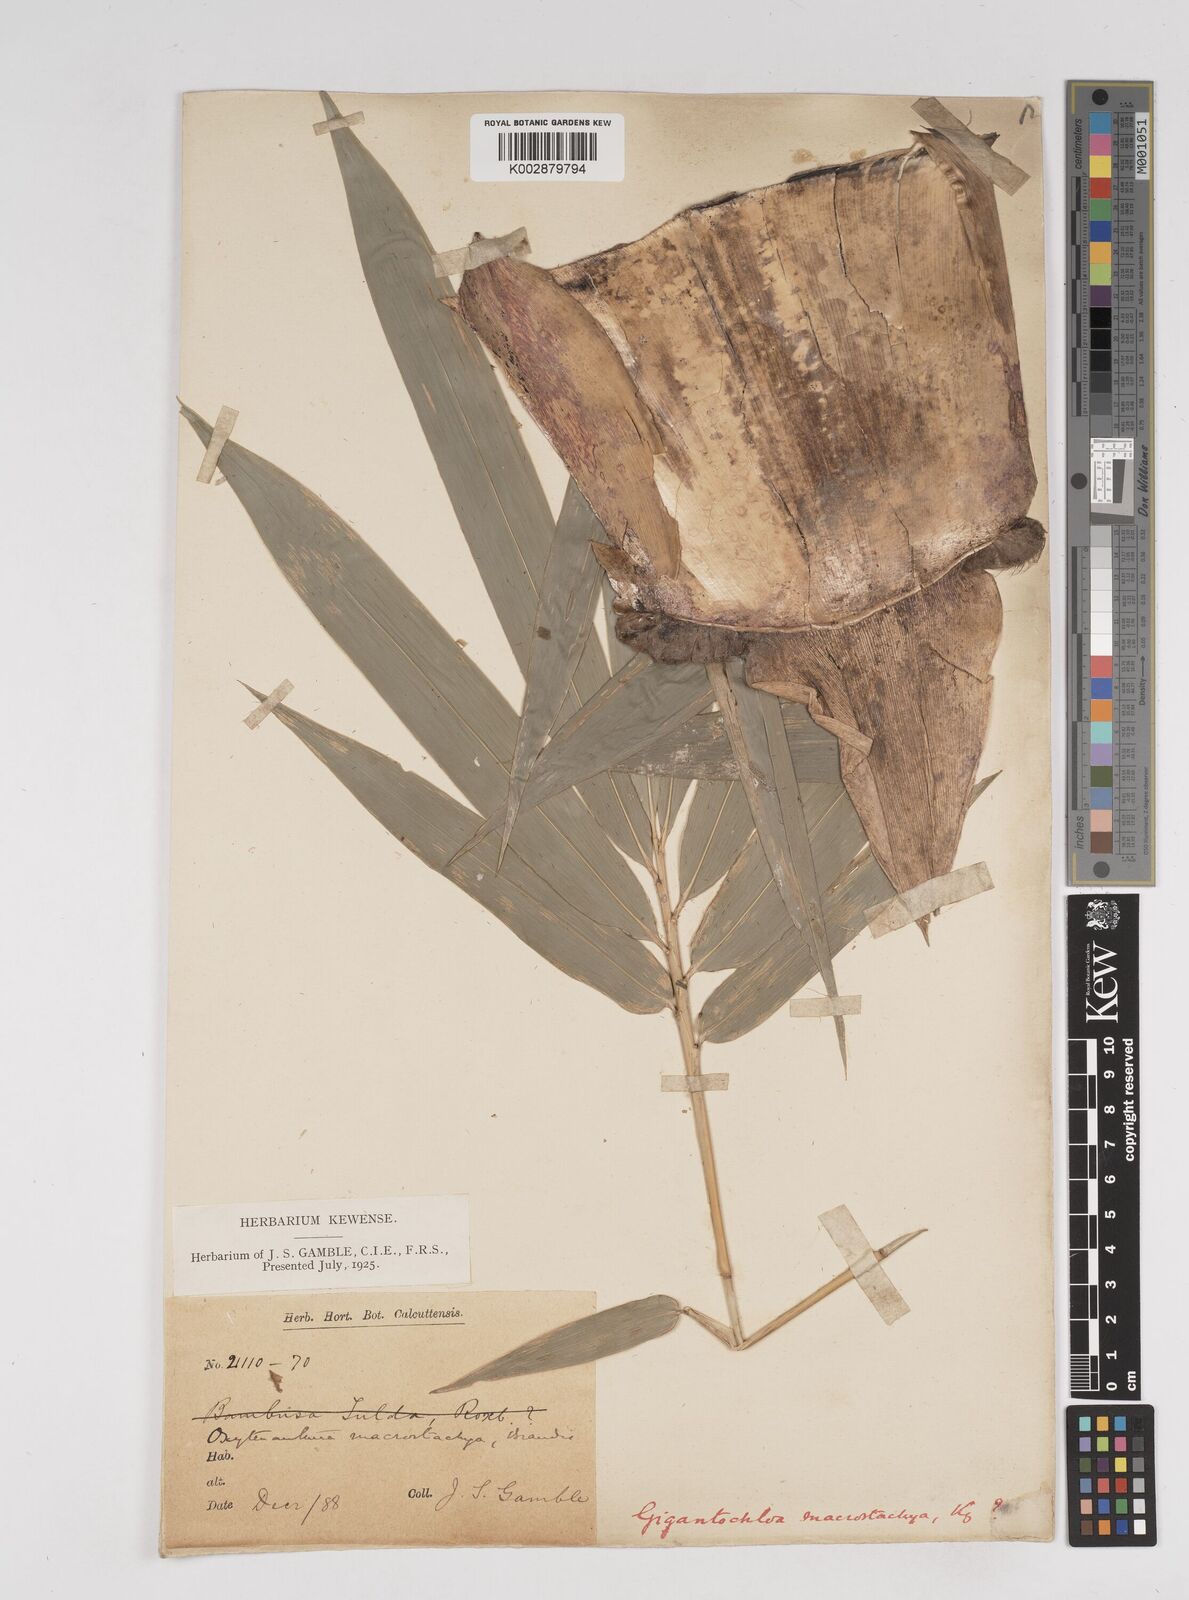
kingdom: Plantae
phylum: Tracheophyta
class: Liliopsida
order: Poales
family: Poaceae
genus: Gigantochloa
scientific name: Gigantochloa macrostachya
